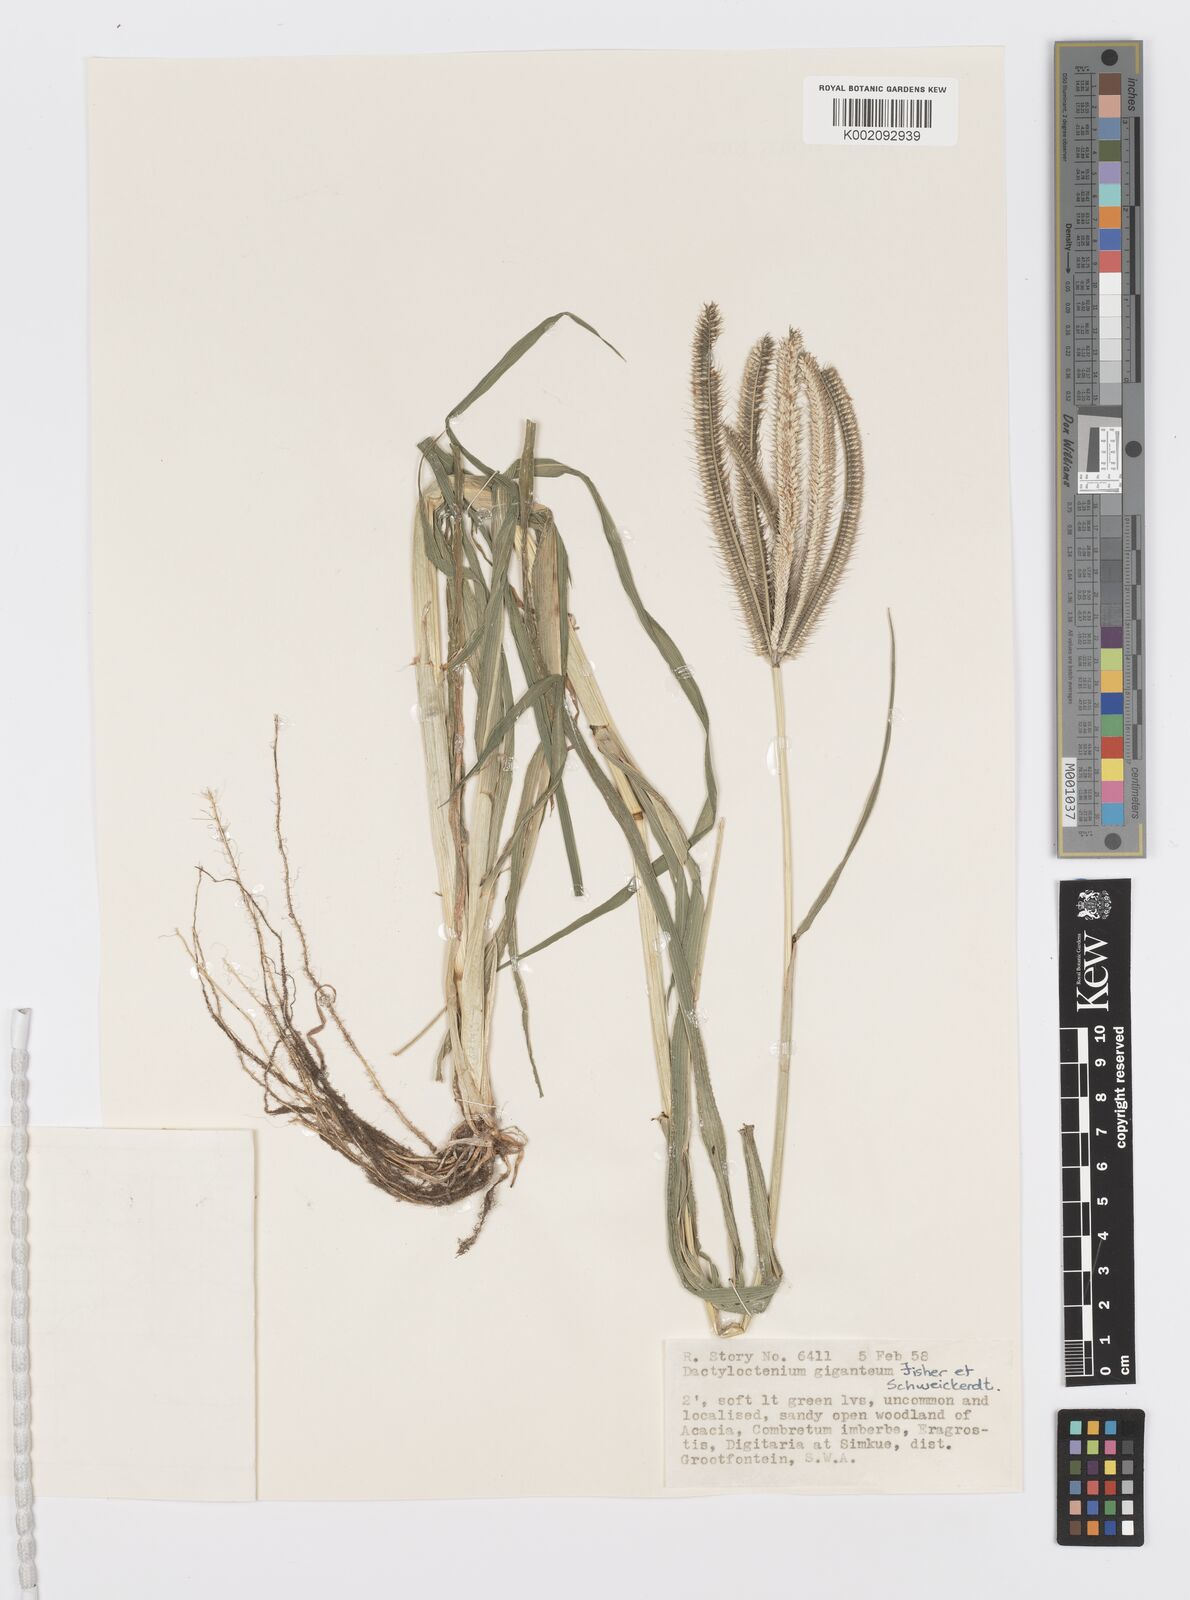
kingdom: Plantae
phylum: Tracheophyta
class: Liliopsida
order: Poales
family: Poaceae
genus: Dactyloctenium
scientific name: Dactyloctenium giganteum
